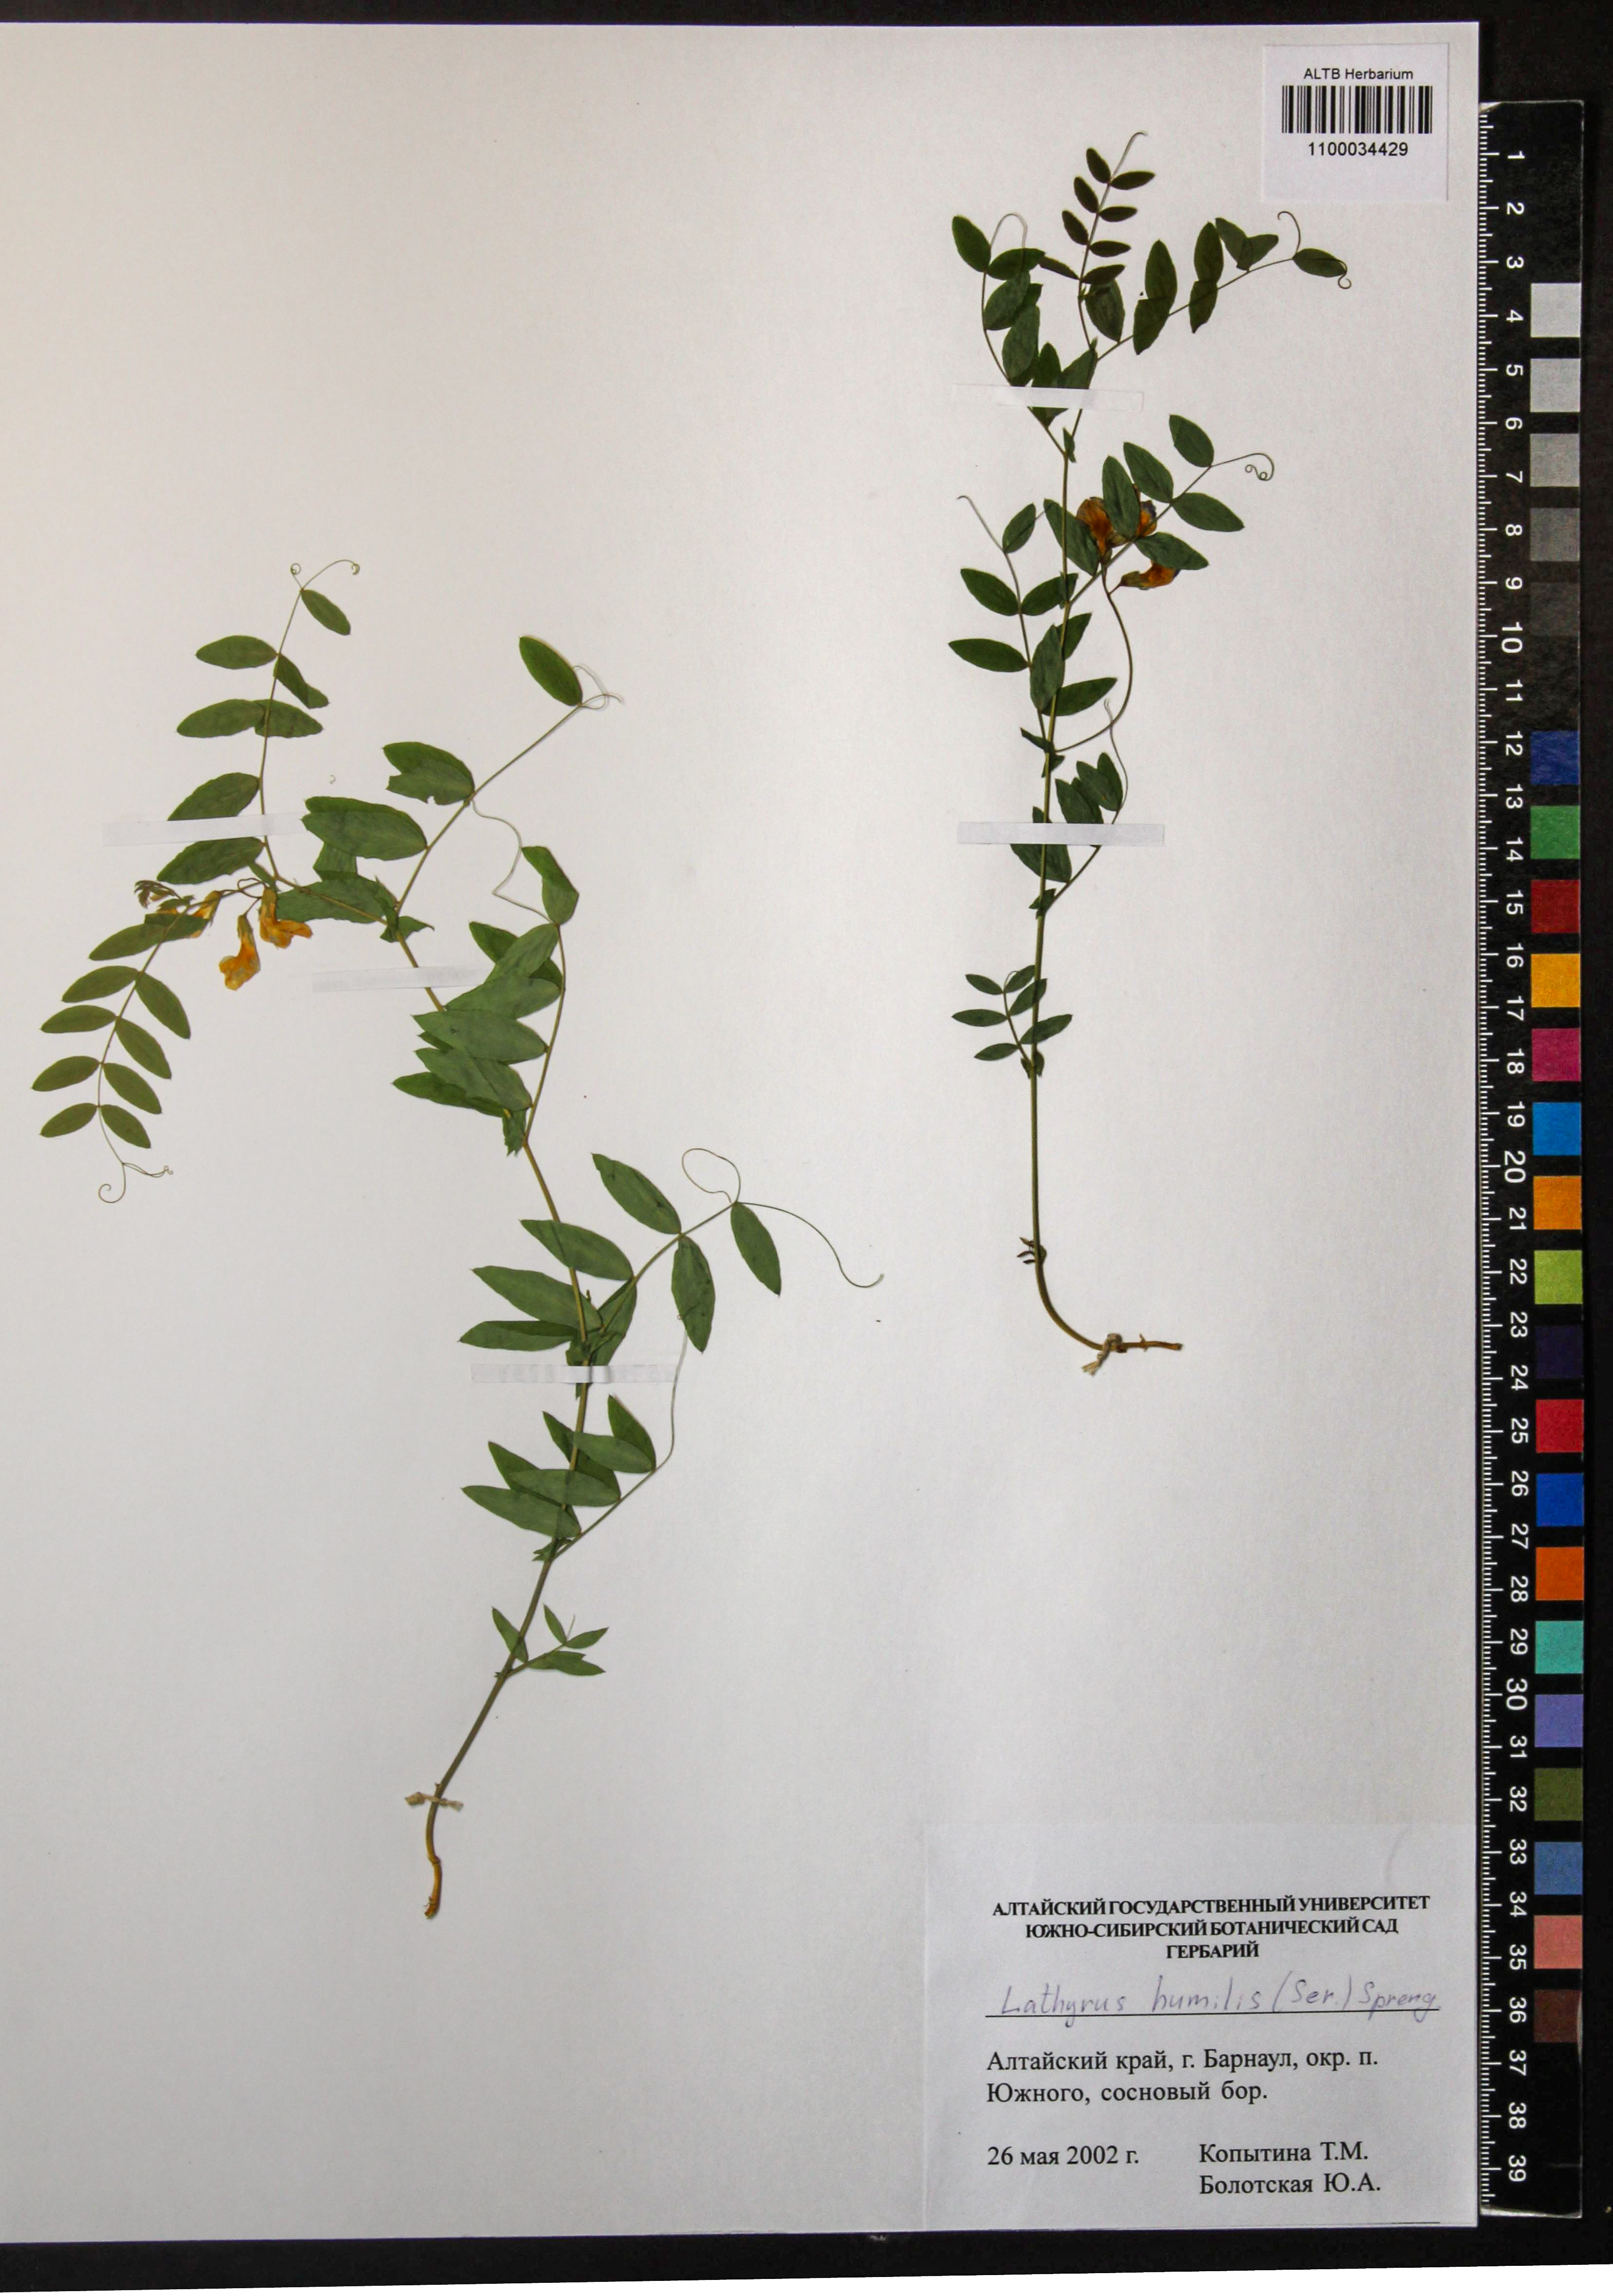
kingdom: Plantae
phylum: Tracheophyta
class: Magnoliopsida
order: Fabales
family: Fabaceae
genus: Lathyrus
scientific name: Lathyrus humilis
